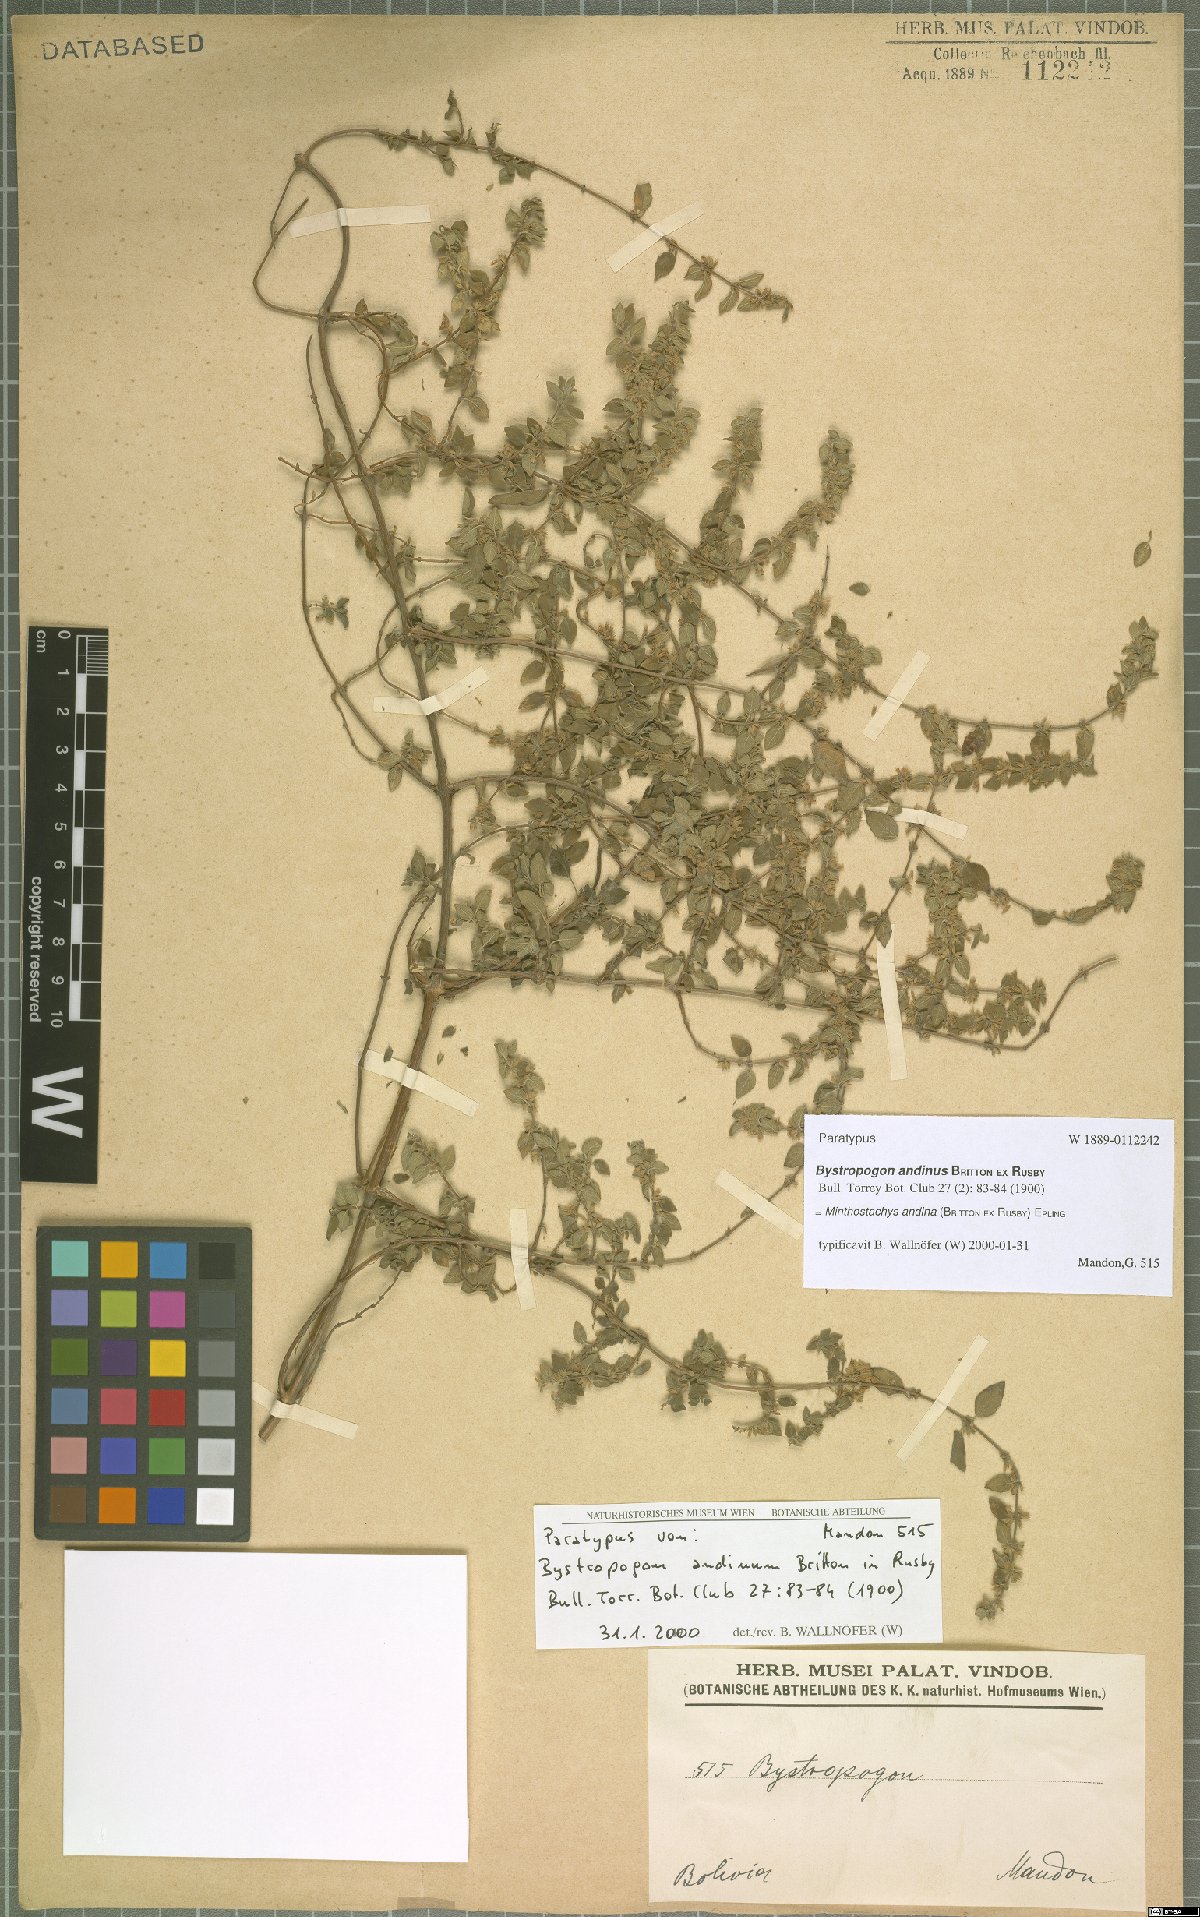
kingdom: Plantae
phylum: Tracheophyta
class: Magnoliopsida
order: Lamiales
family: Lamiaceae
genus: Minthostachys
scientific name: Minthostachys andina
